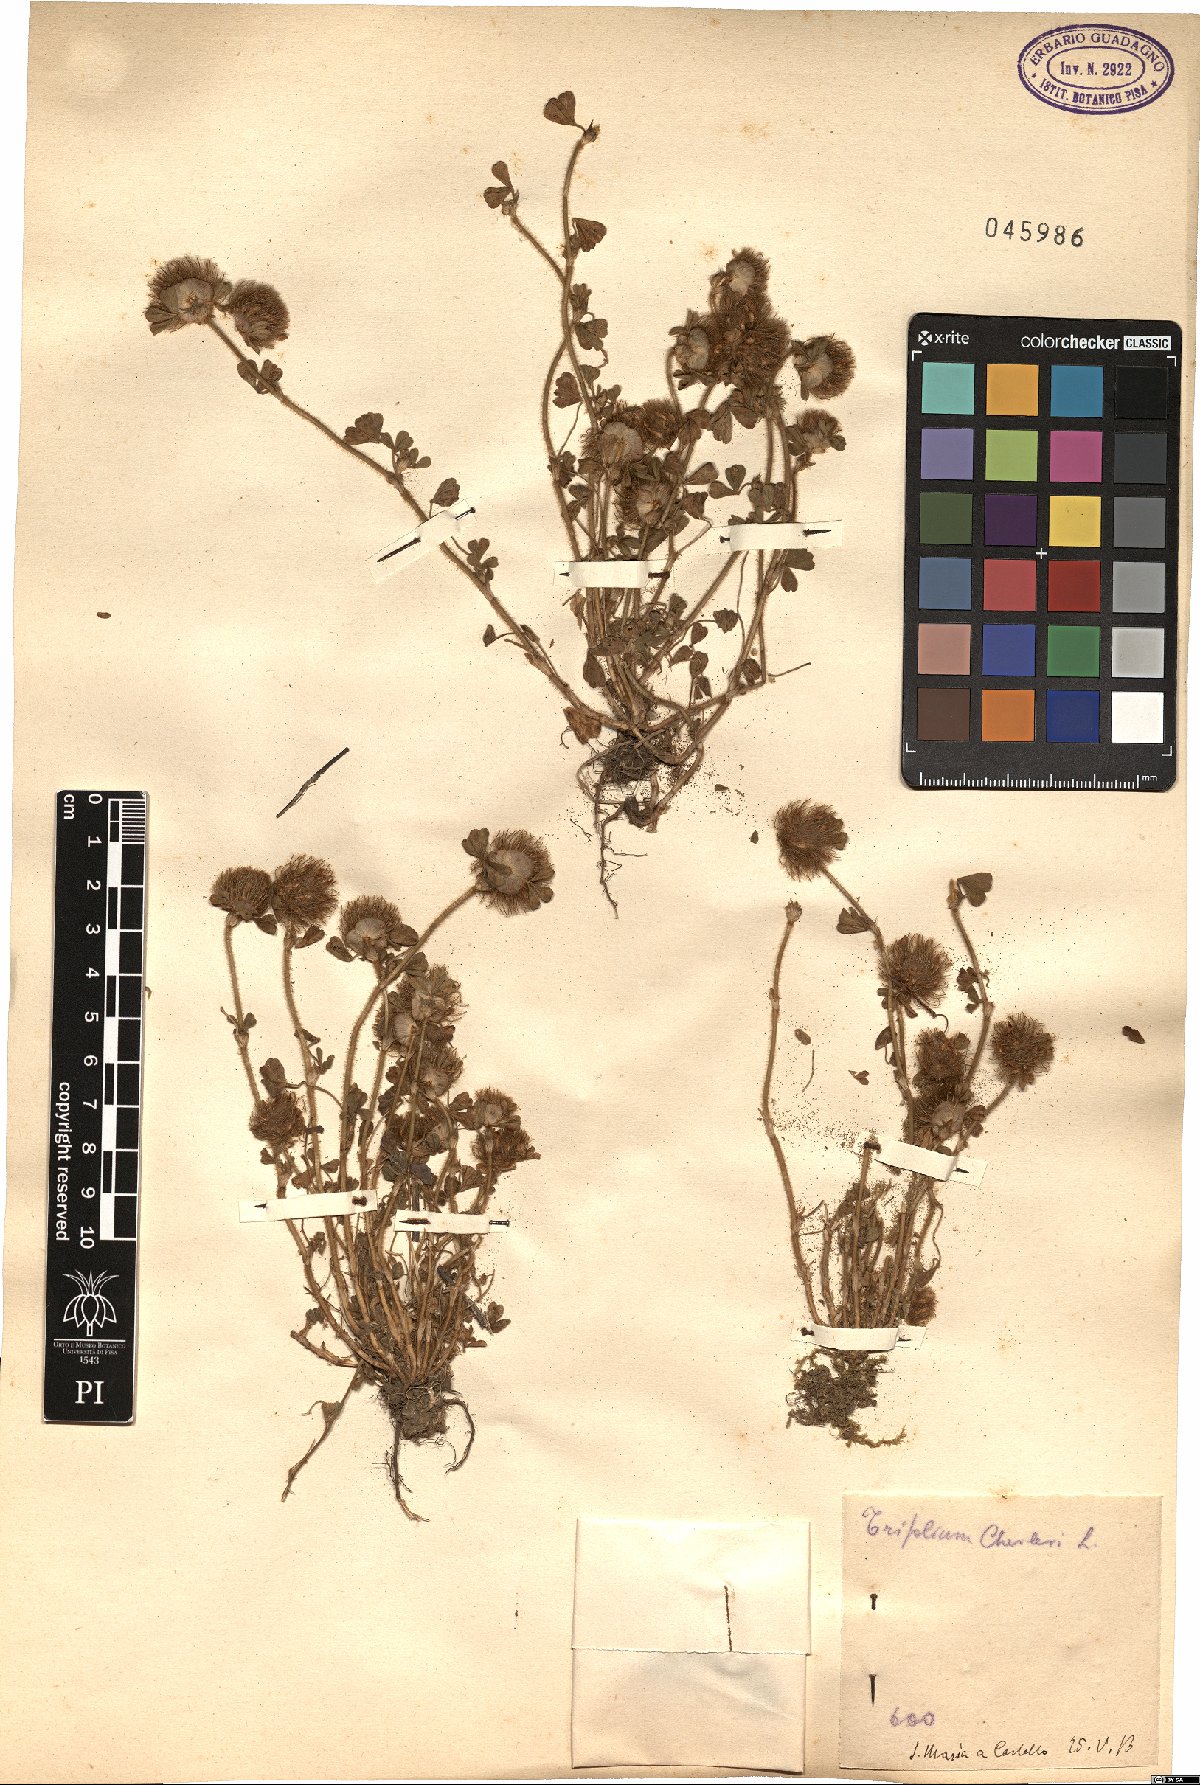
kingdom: Plantae
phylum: Tracheophyta
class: Magnoliopsida
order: Fabales
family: Fabaceae
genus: Trifolium
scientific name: Trifolium cherleri
